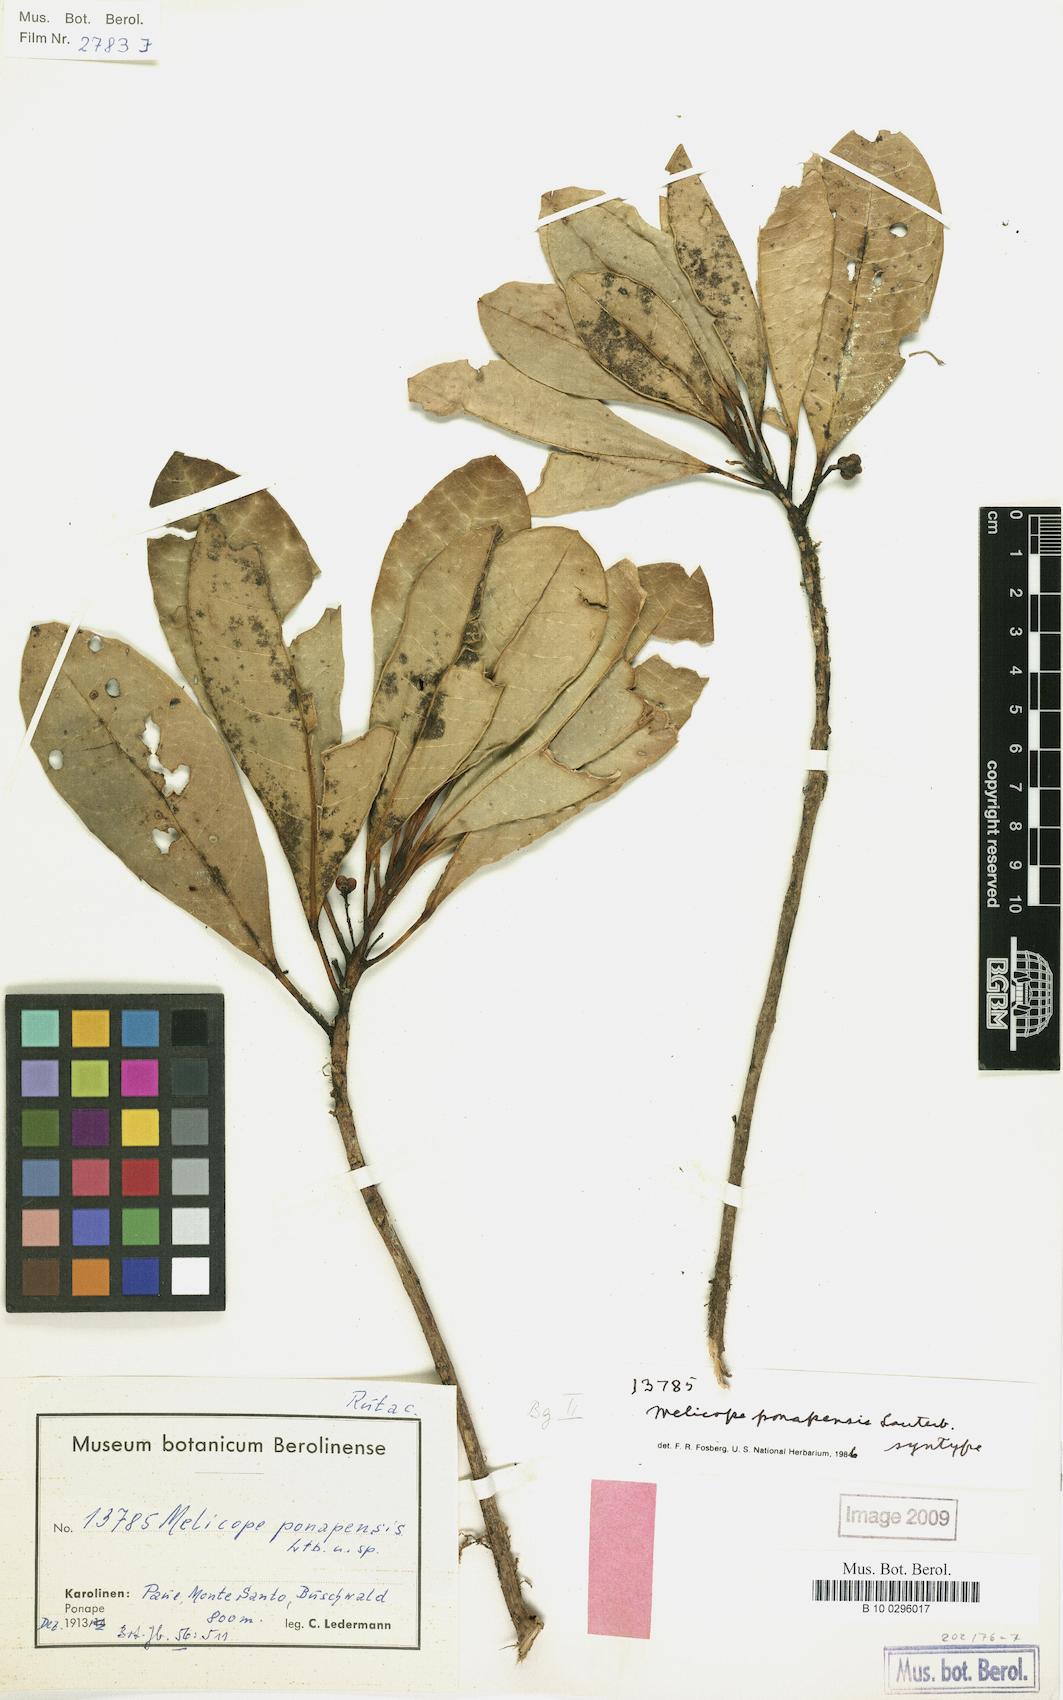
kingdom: Plantae
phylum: Tracheophyta
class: Magnoliopsida
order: Sapindales
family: Rutaceae
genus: Melicope
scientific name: Melicope ponapensis
